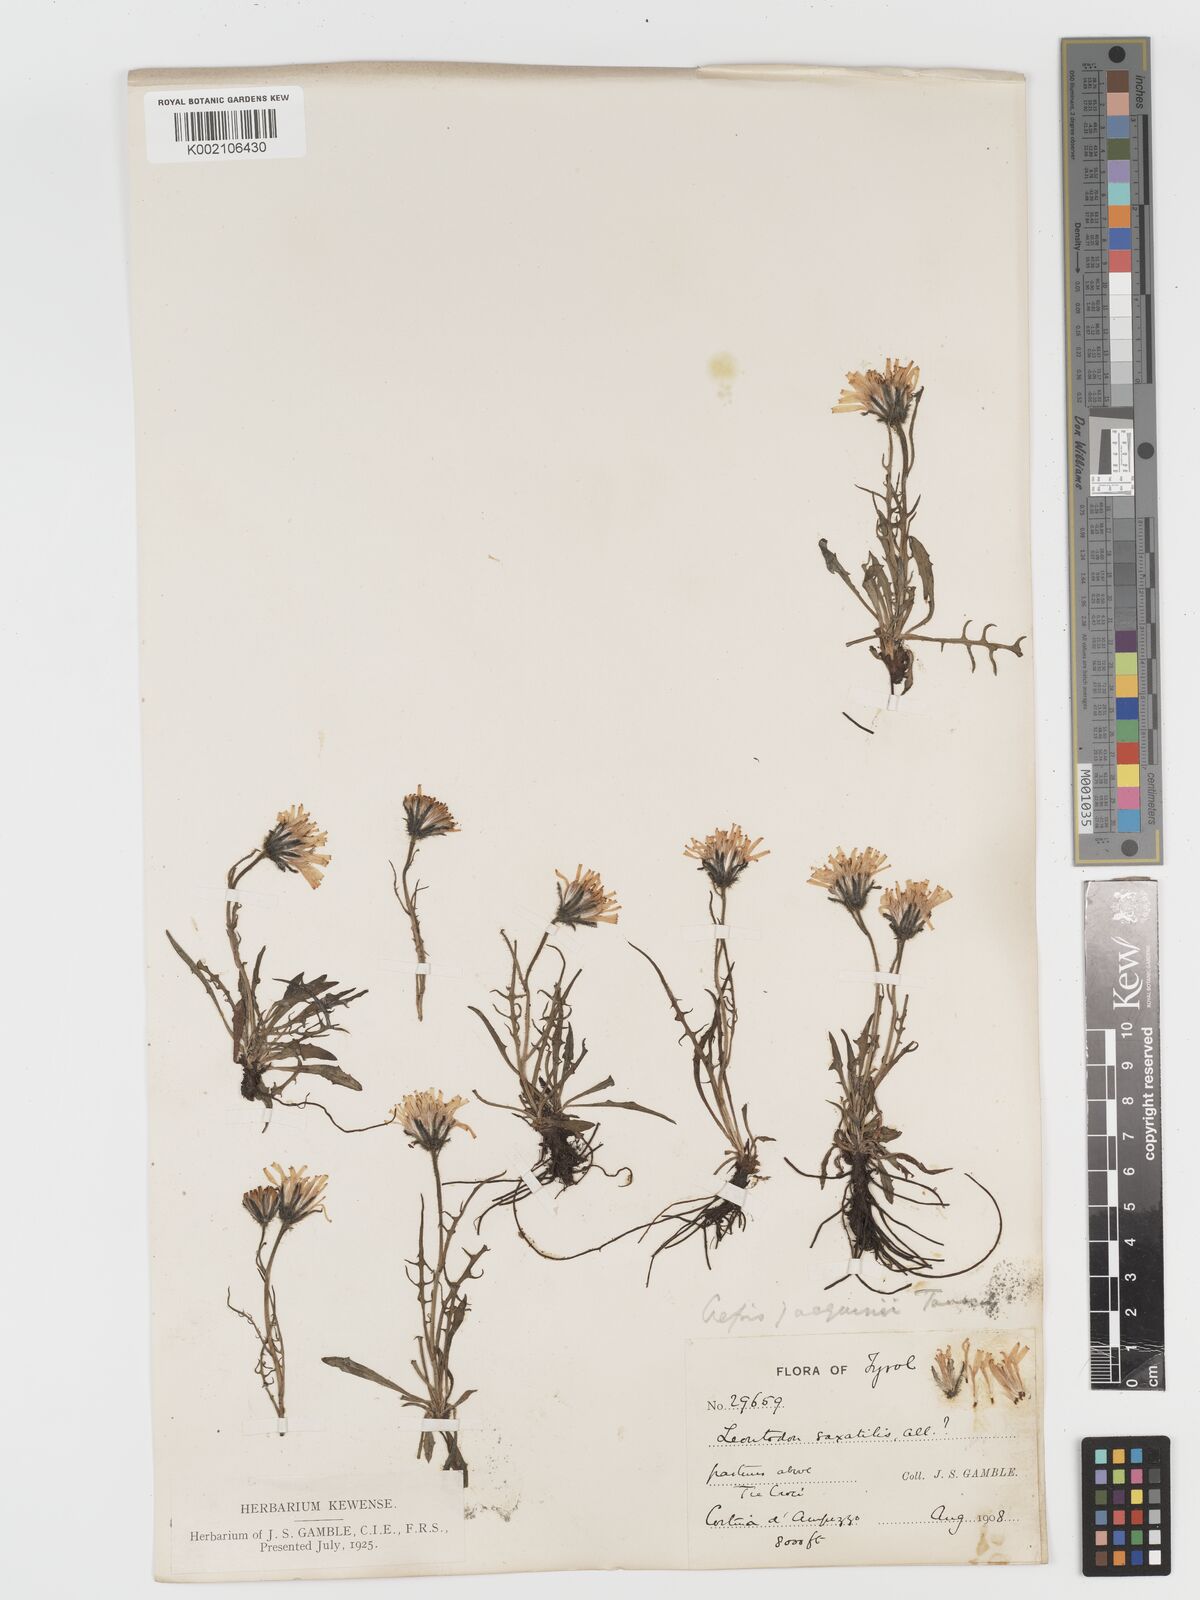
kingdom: Plantae
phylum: Tracheophyta
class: Magnoliopsida
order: Asterales
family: Asteraceae
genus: Crepis
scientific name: Crepis jacquinii
